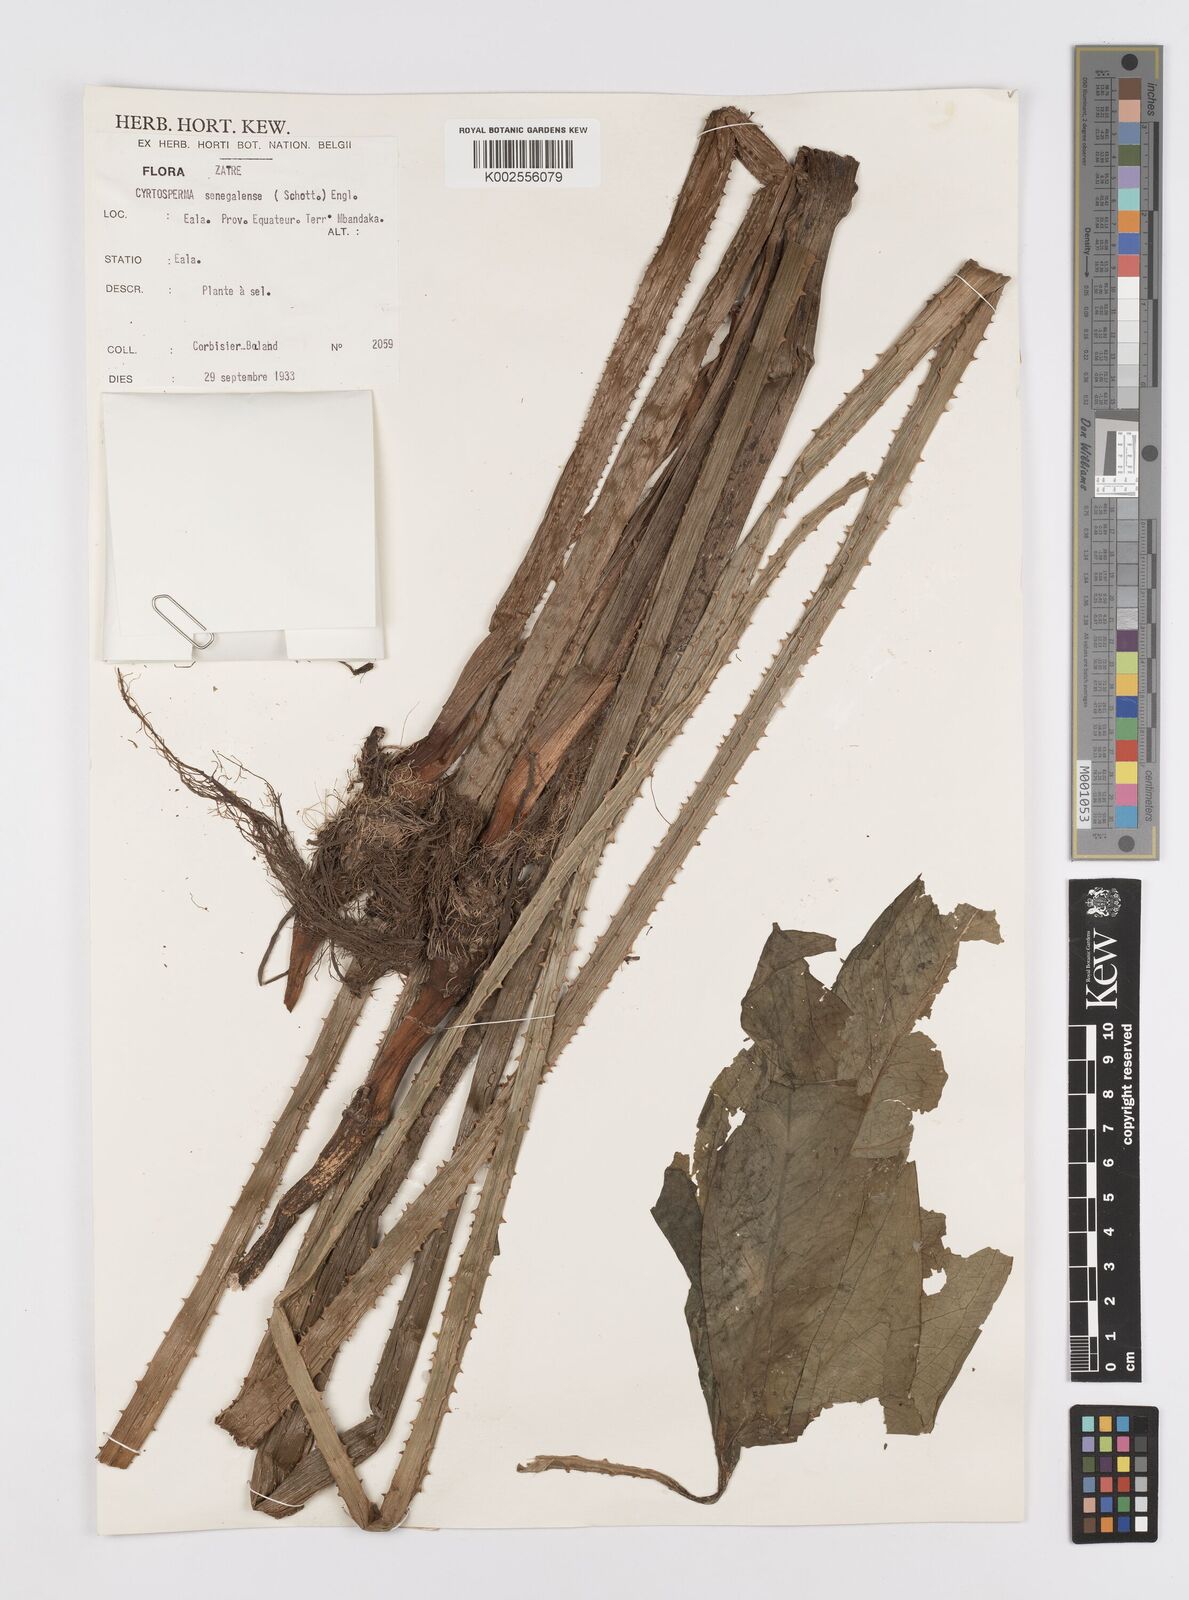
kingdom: Plantae
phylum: Tracheophyta
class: Liliopsida
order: Alismatales
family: Araceae
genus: Lasimorpha
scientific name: Lasimorpha senegalensis
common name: Swamp arum
